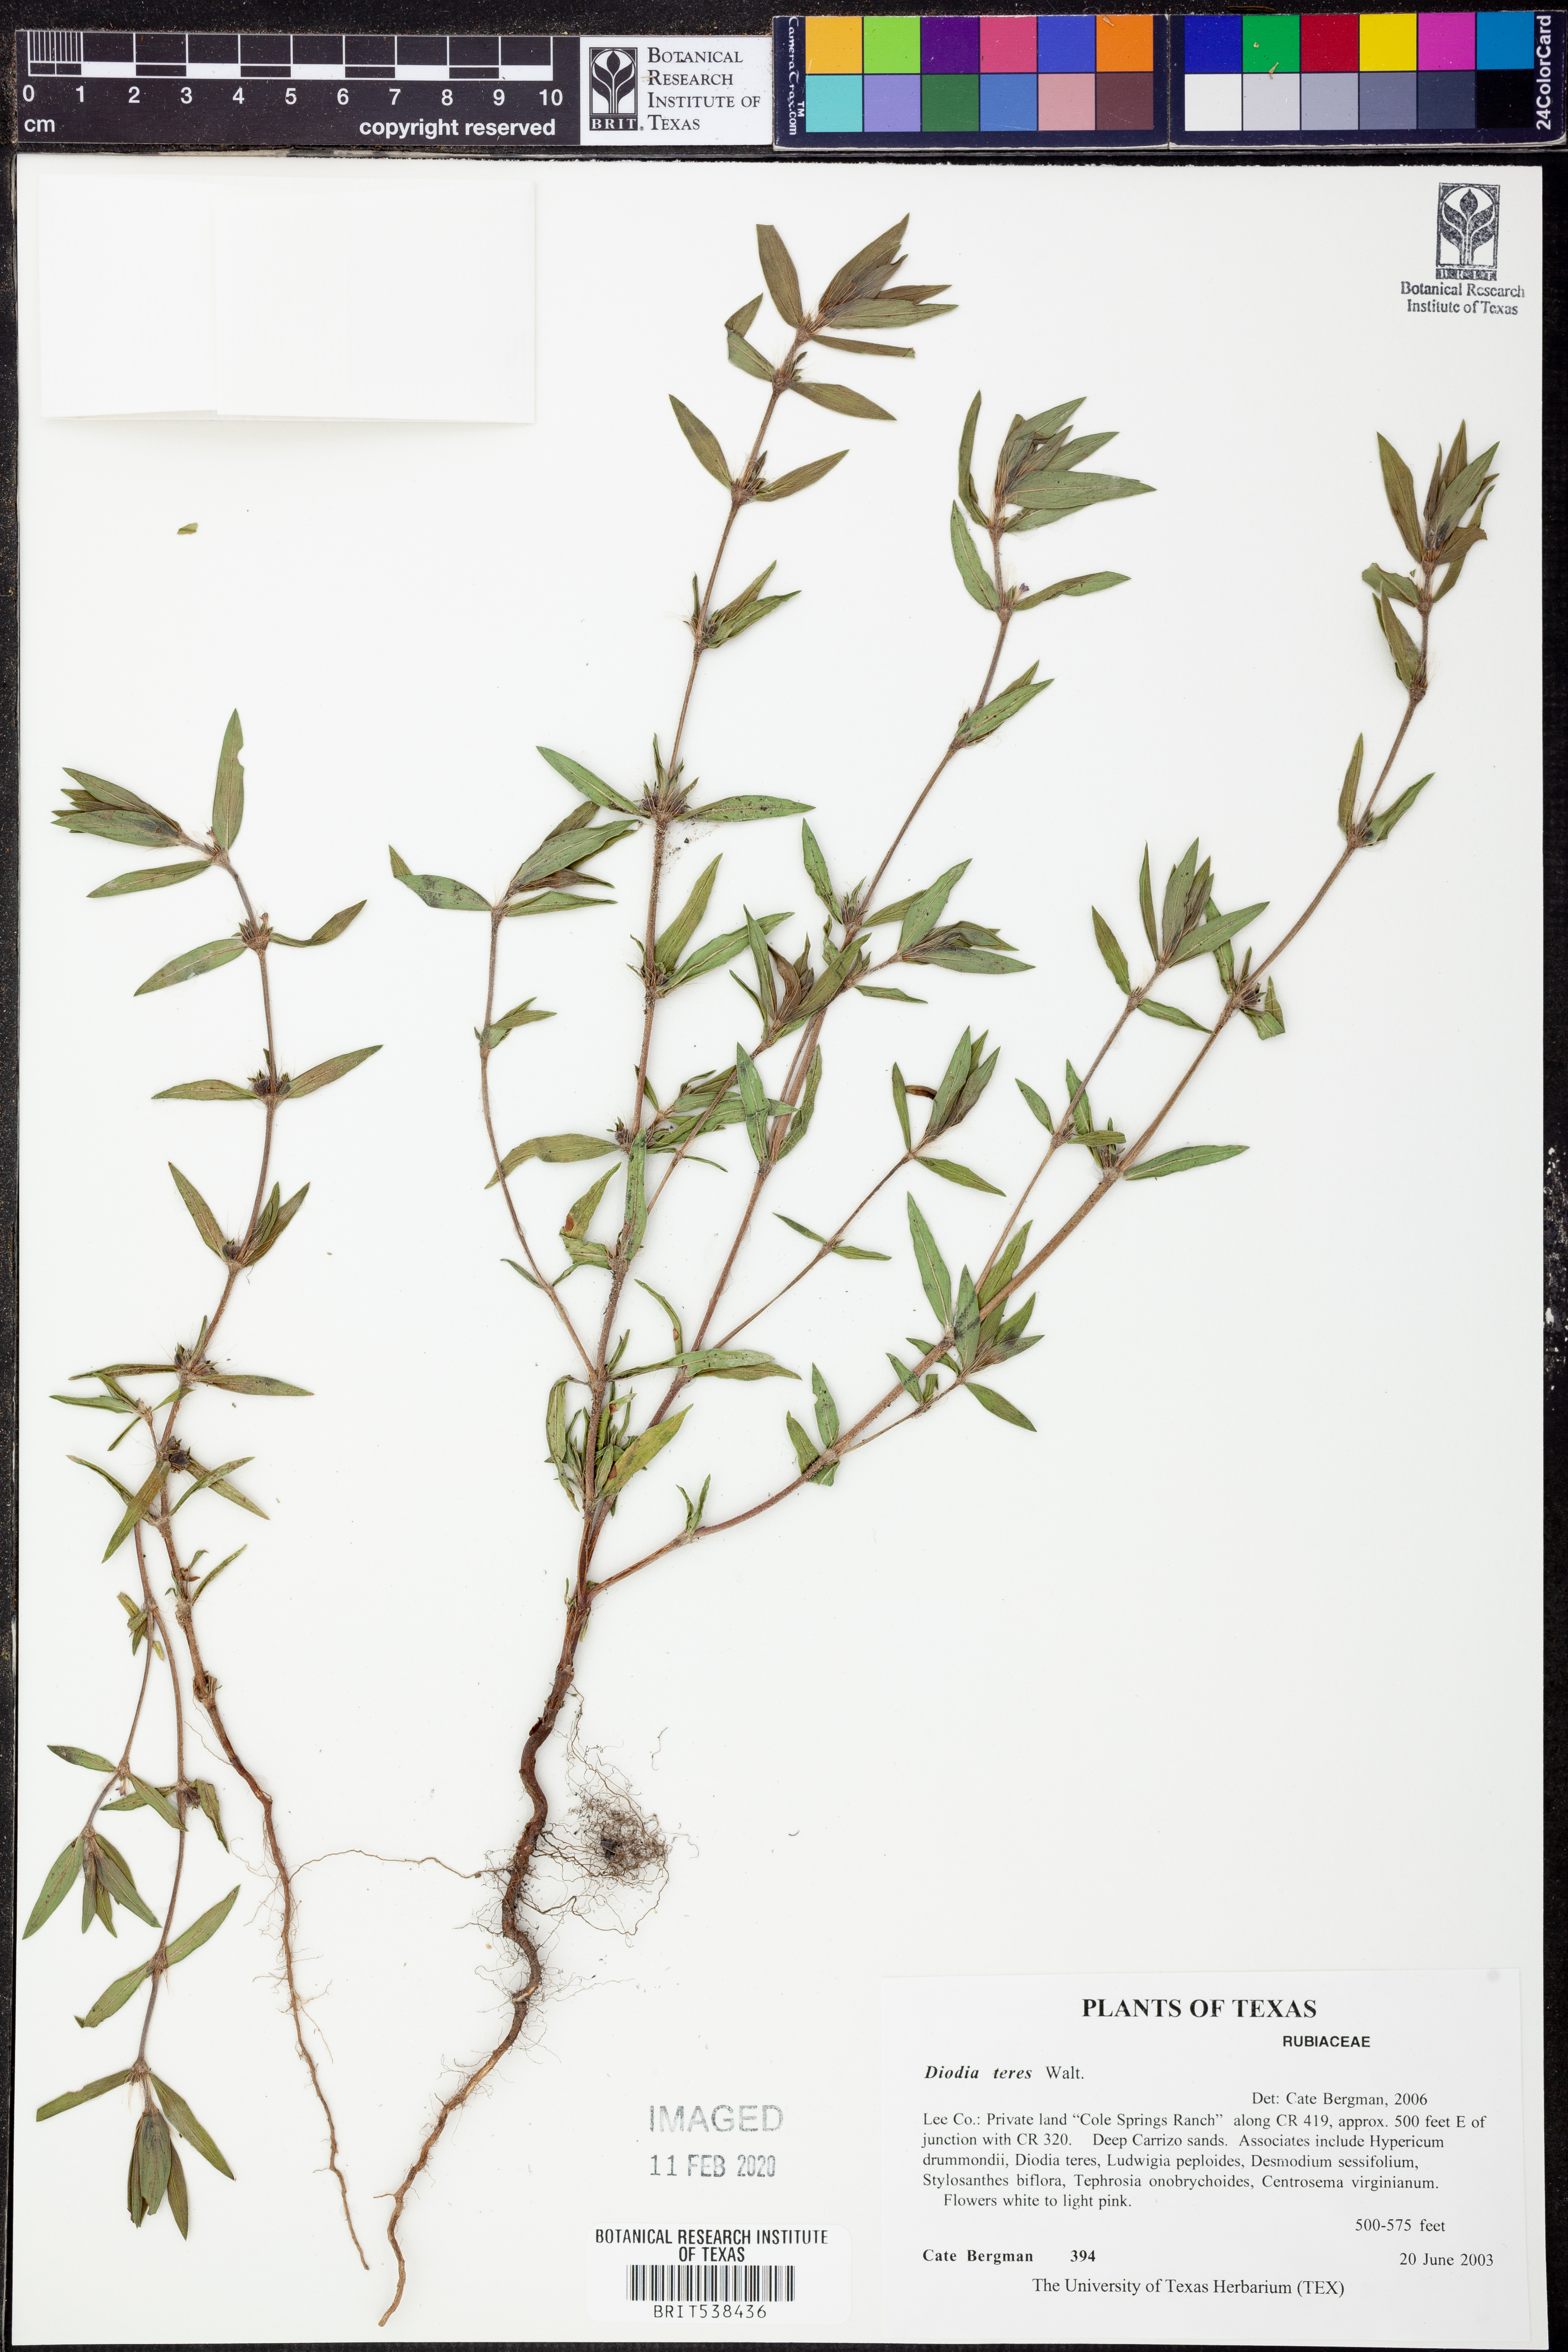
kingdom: Plantae
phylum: Tracheophyta
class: Magnoliopsida
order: Gentianales
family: Rubiaceae
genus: Hexasepalum
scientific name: Hexasepalum teres
